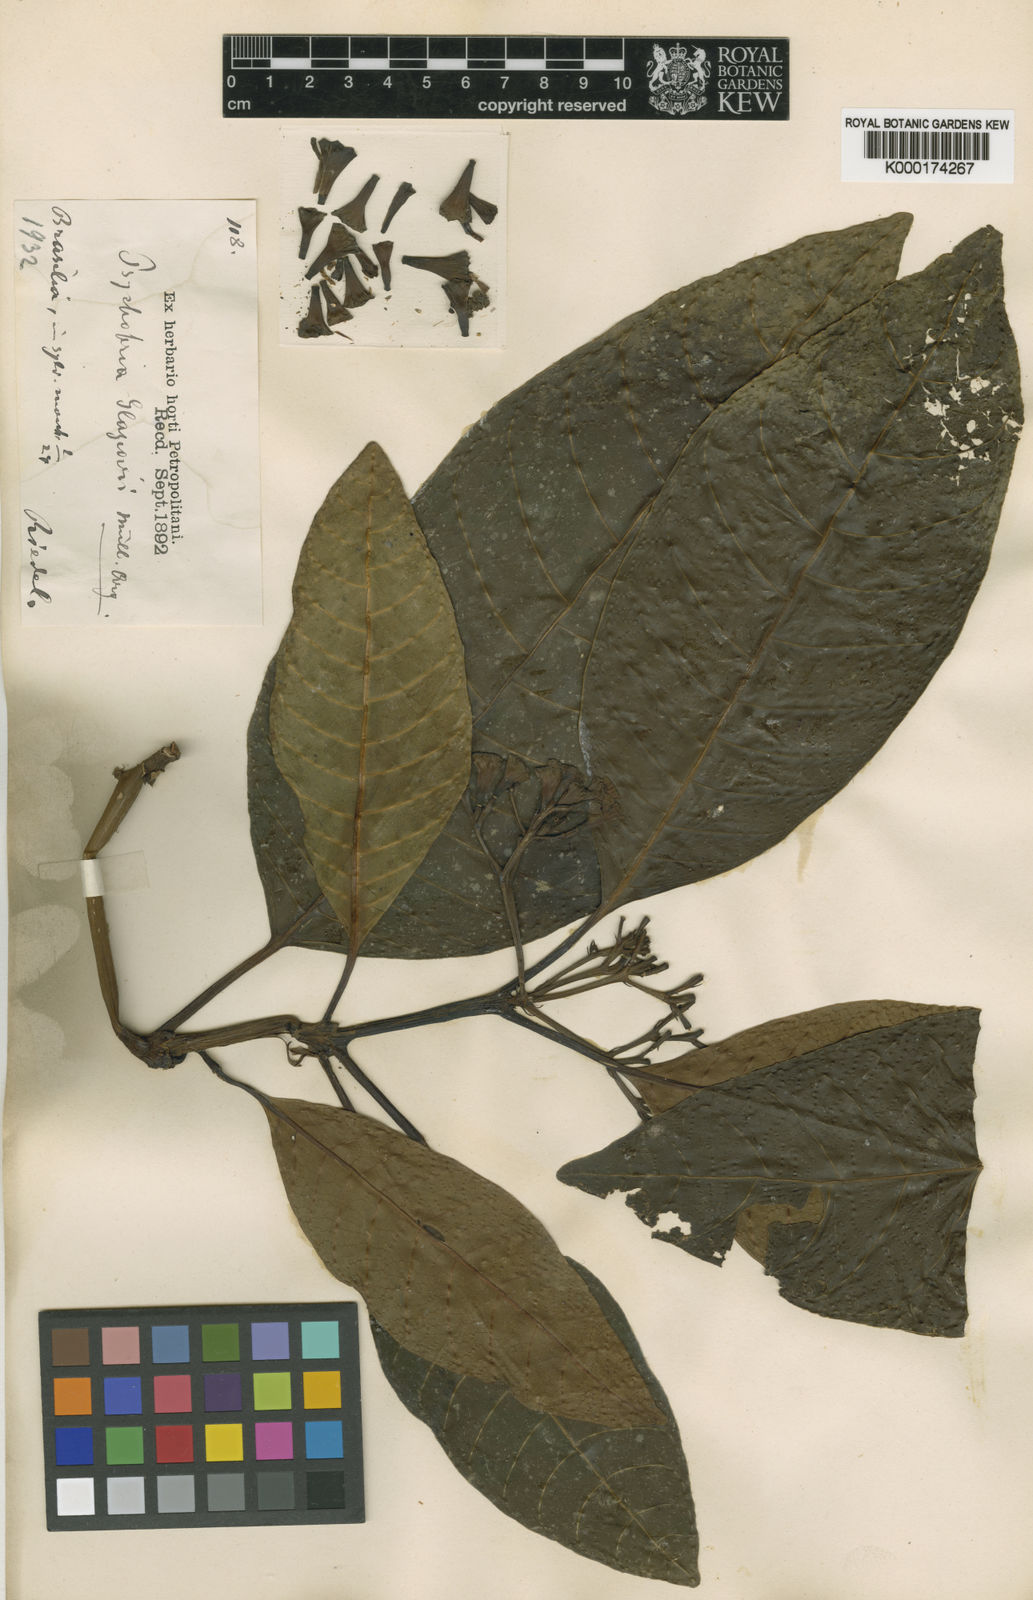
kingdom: Plantae
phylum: Tracheophyta
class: Magnoliopsida
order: Gentianales
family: Rubiaceae
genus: Psychotria
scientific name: Psychotria ararum
